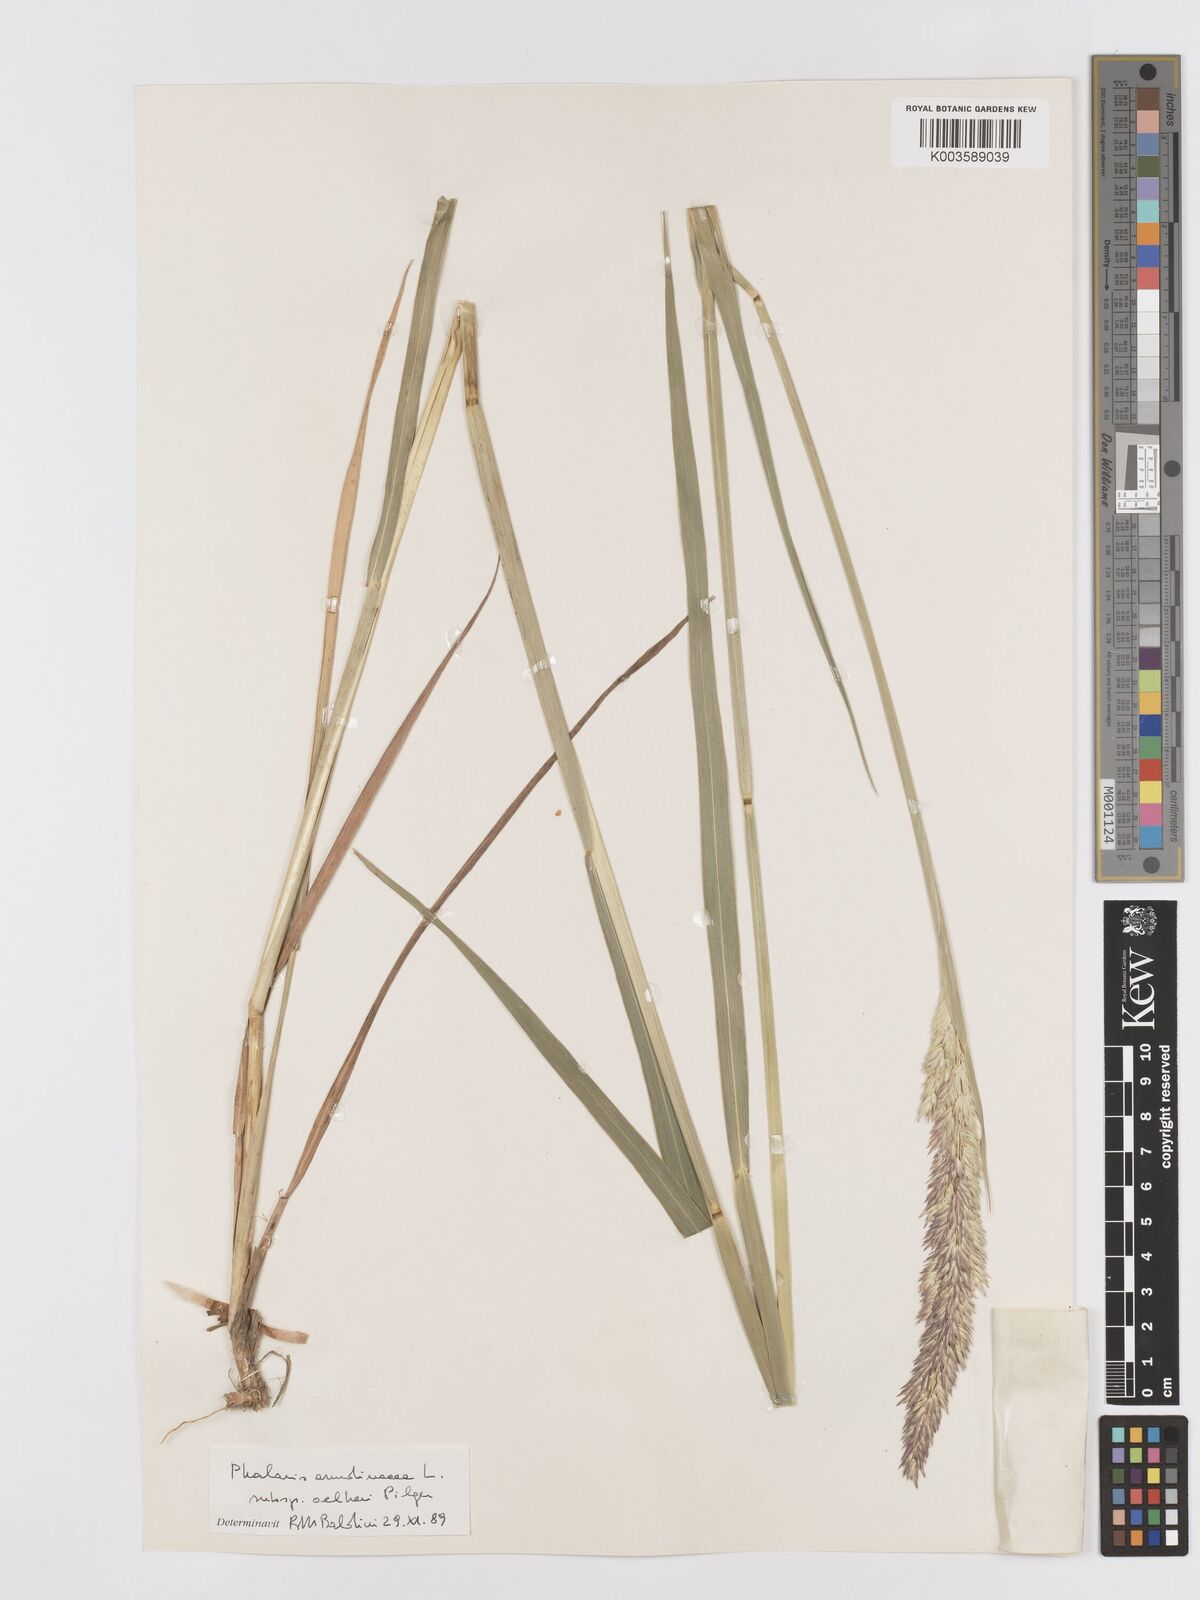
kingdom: Plantae
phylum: Tracheophyta
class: Liliopsida
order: Poales
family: Poaceae
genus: Phalaris
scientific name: Phalaris arundinacea
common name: Reed canary-grass
